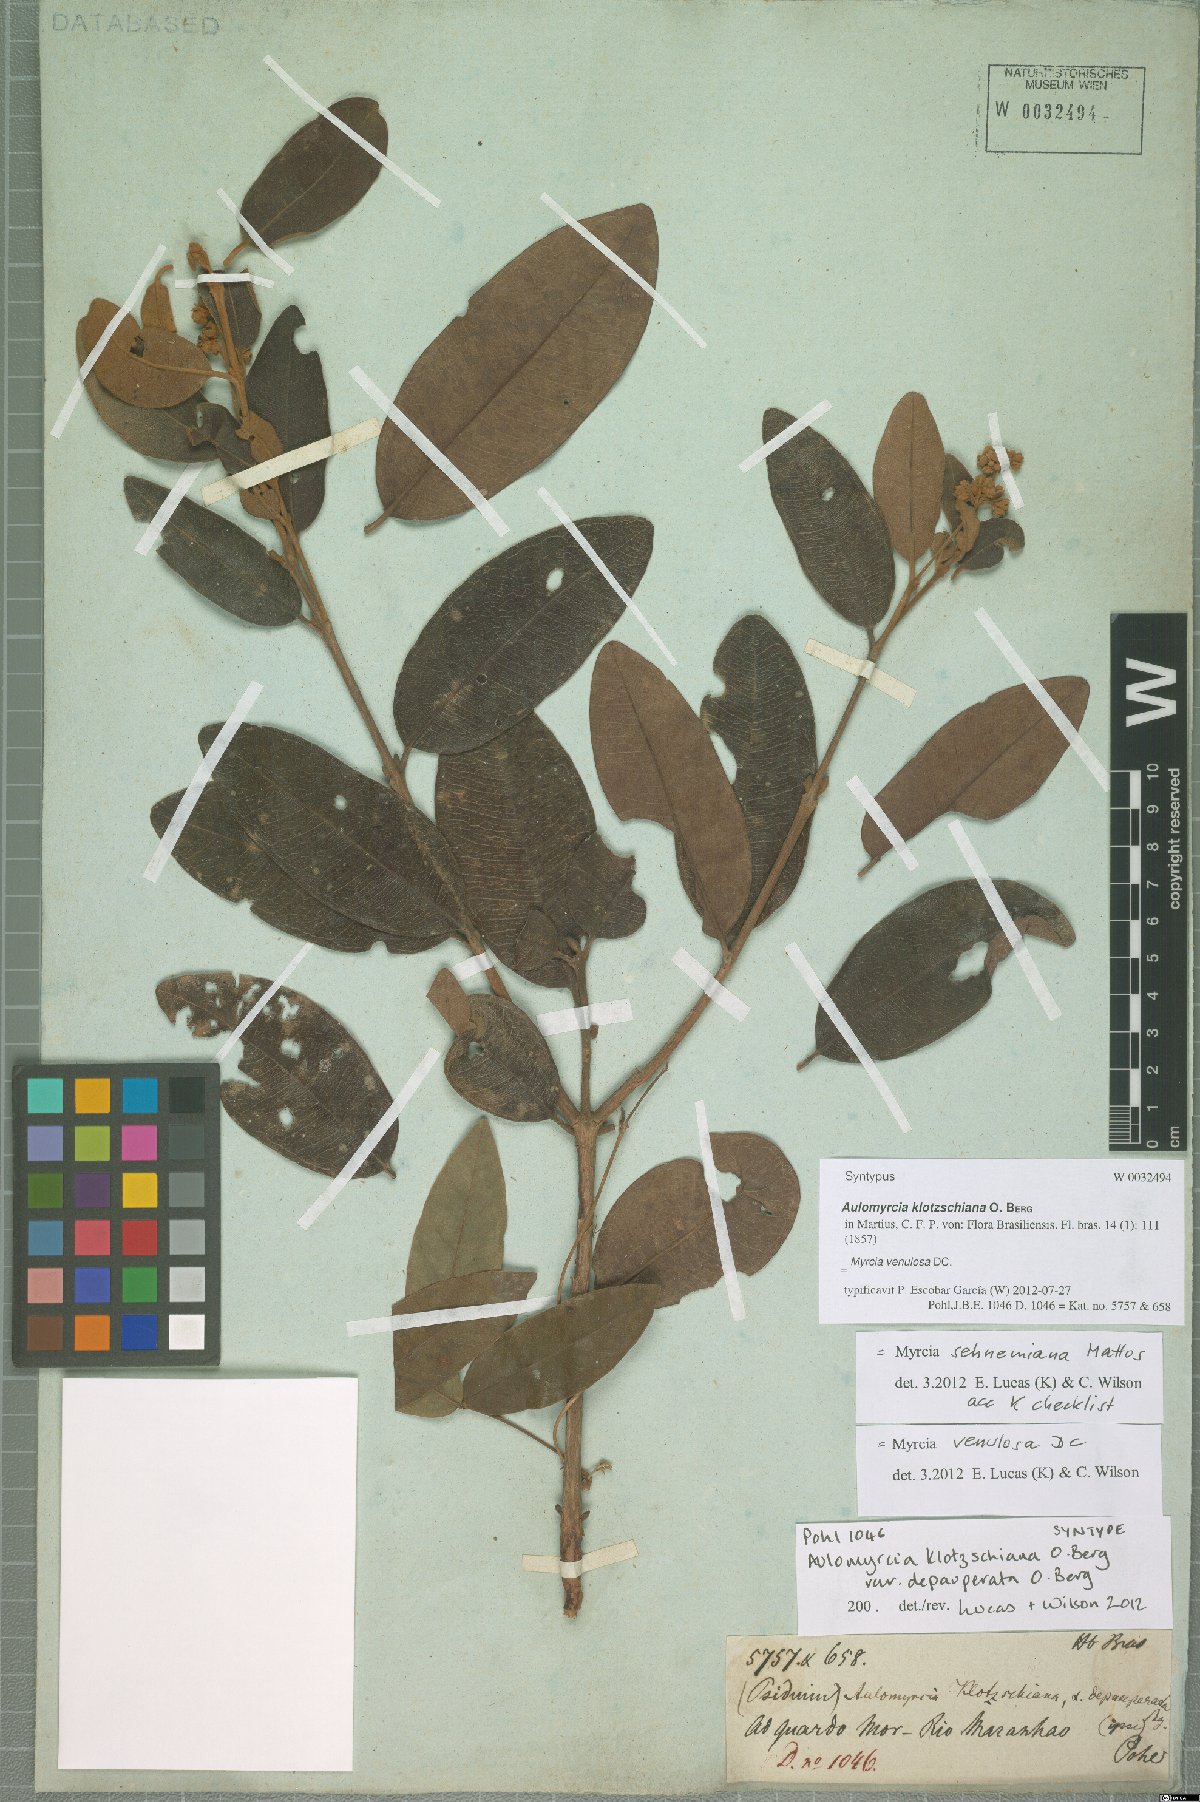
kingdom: Plantae
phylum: Tracheophyta
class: Magnoliopsida
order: Myrtales
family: Myrtaceae
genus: Myrcia
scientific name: Myrcia venulosa
